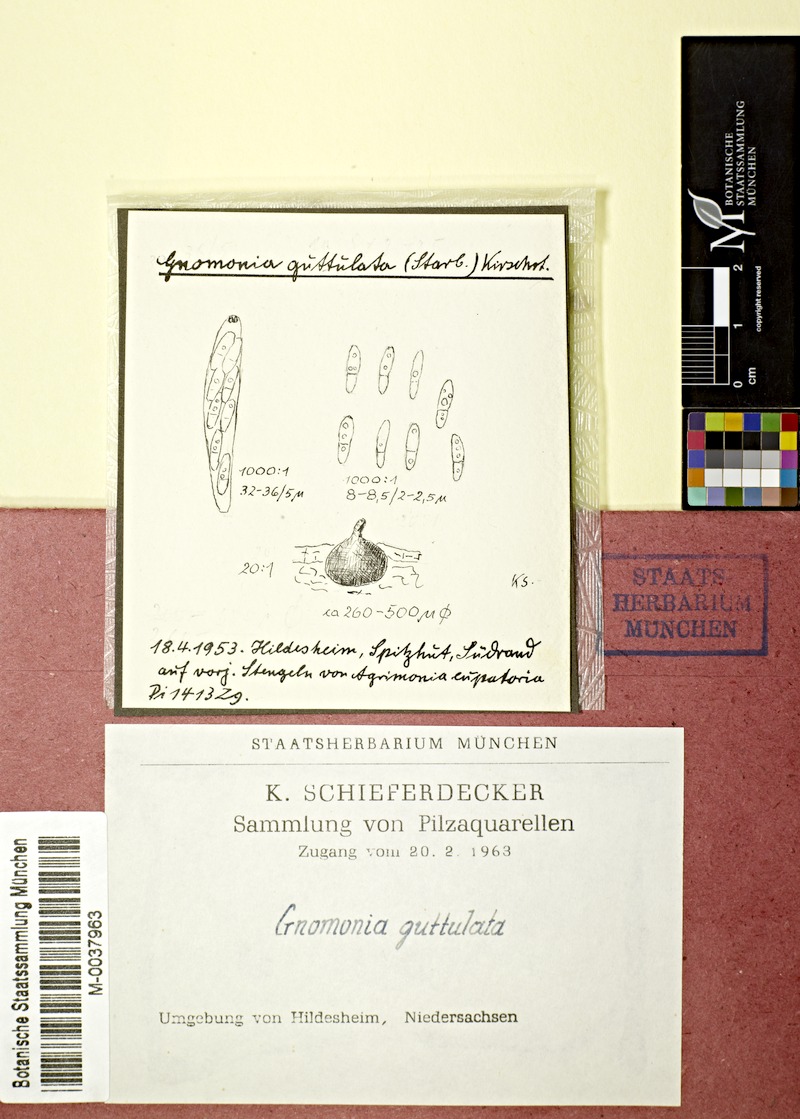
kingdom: Plantae
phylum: Tracheophyta
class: Magnoliopsida
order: Rosales
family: Rosaceae
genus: Agrimonia
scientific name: Agrimonia pilosa
